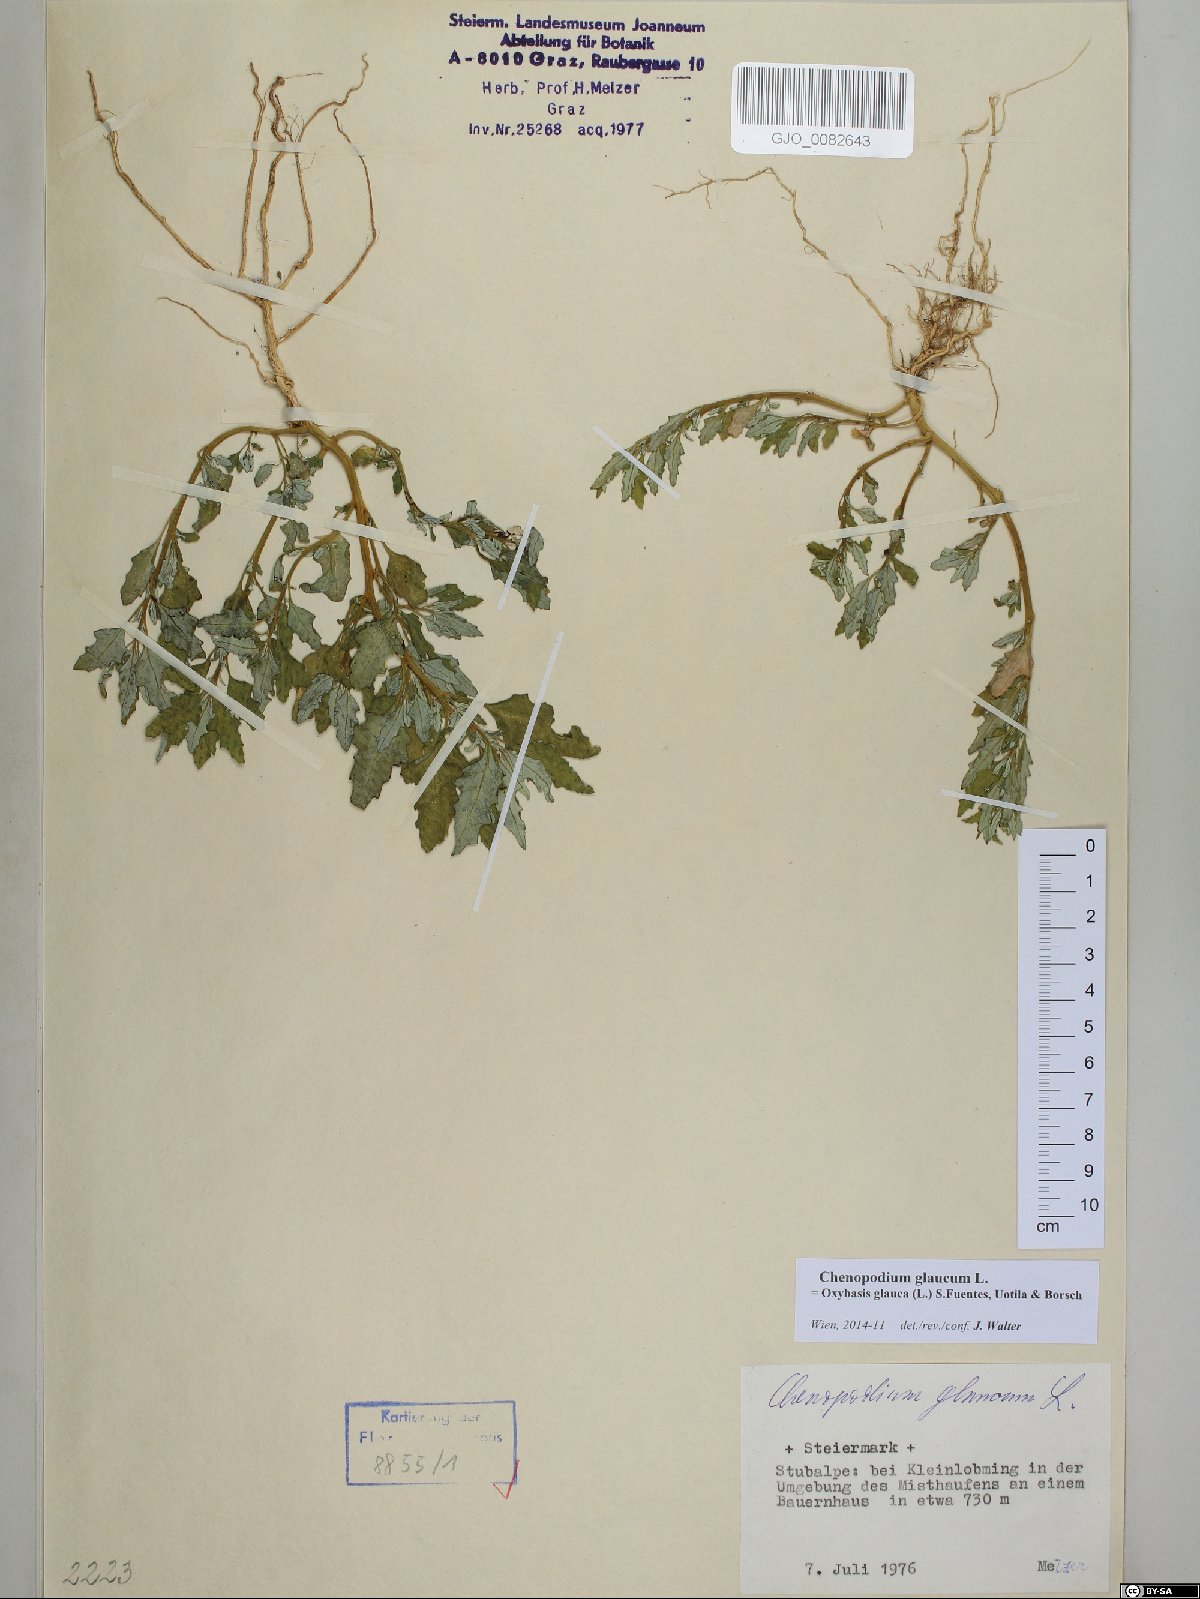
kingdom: Plantae
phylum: Tracheophyta
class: Magnoliopsida
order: Caryophyllales
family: Amaranthaceae
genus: Oxybasis
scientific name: Oxybasis glauca
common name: Glaucous goosefoot
